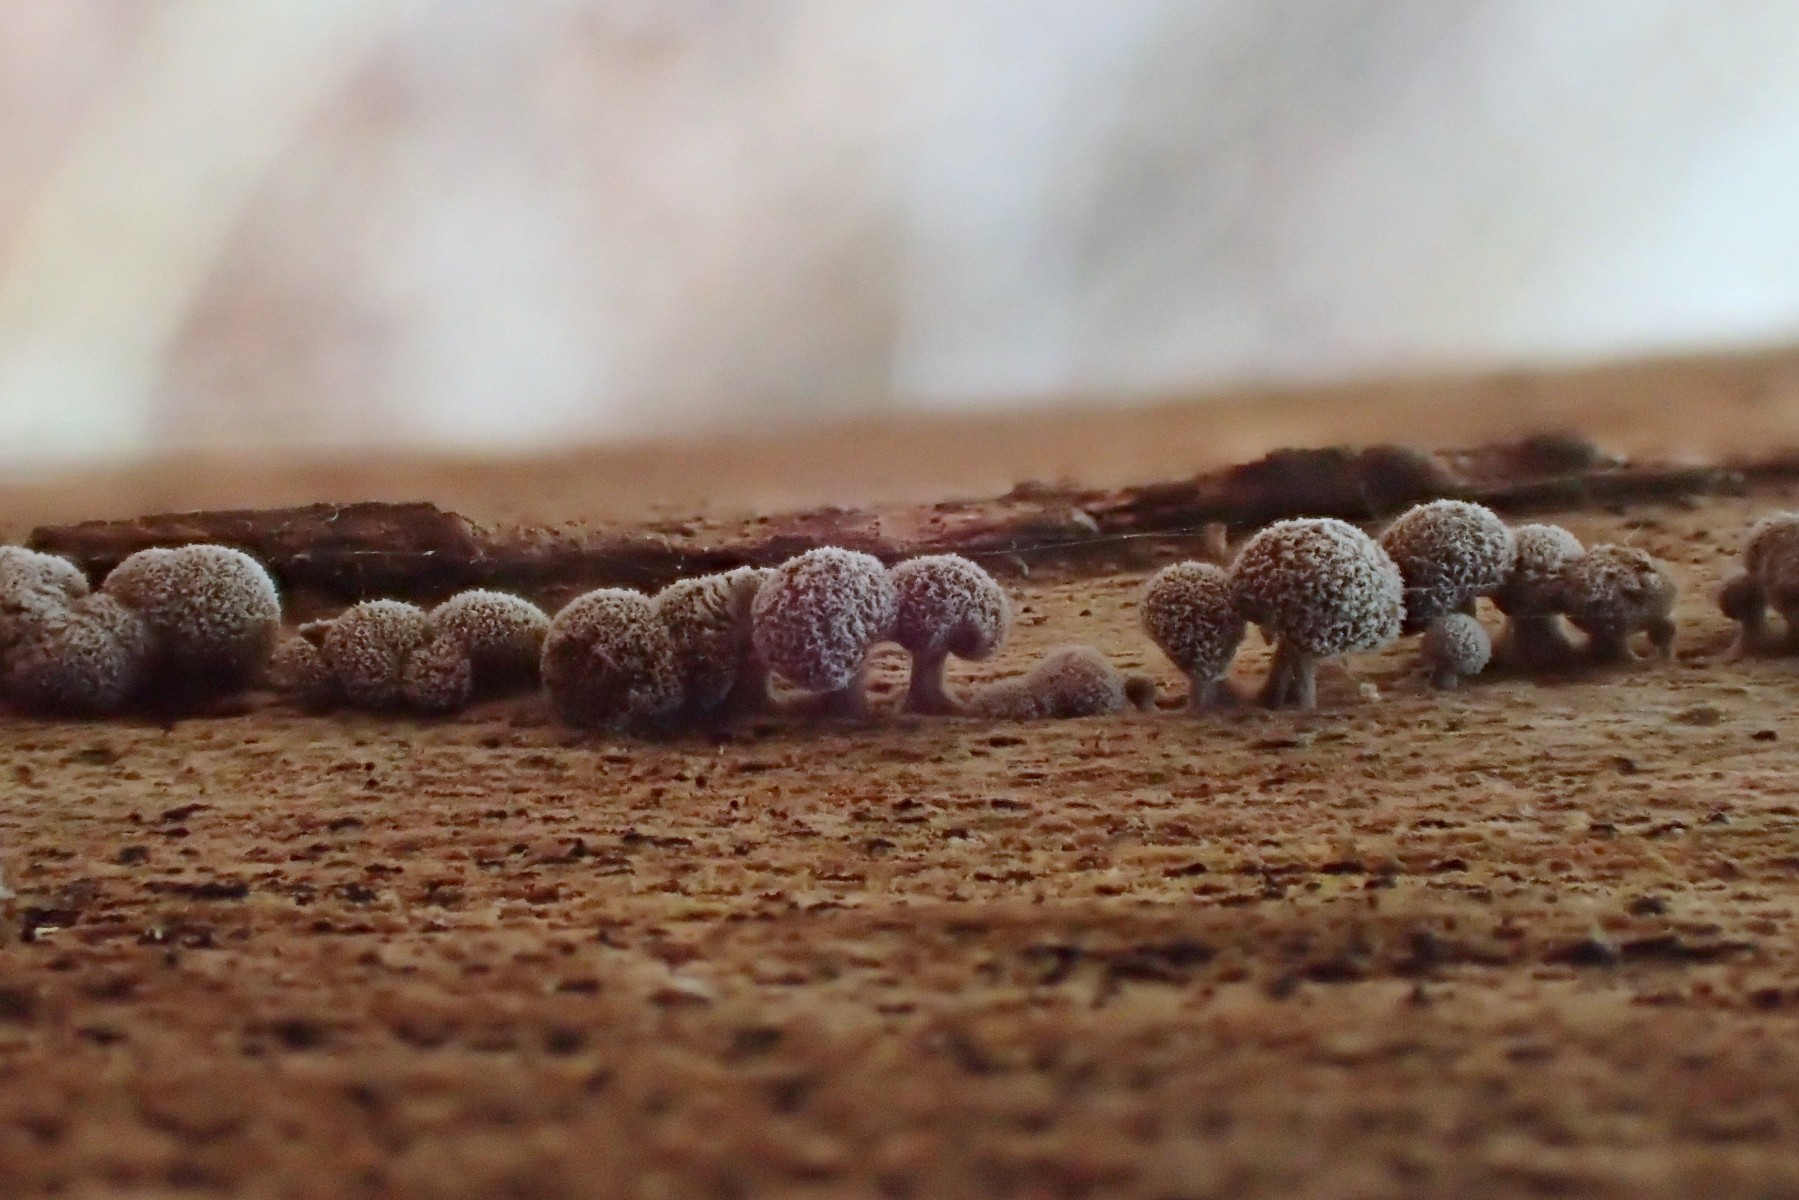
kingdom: Fungi
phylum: Basidiomycota
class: Atractiellomycetes
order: Atractiellales
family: Phleogenaceae
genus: Phleogena
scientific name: Phleogena faginea
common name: pudderkølle
